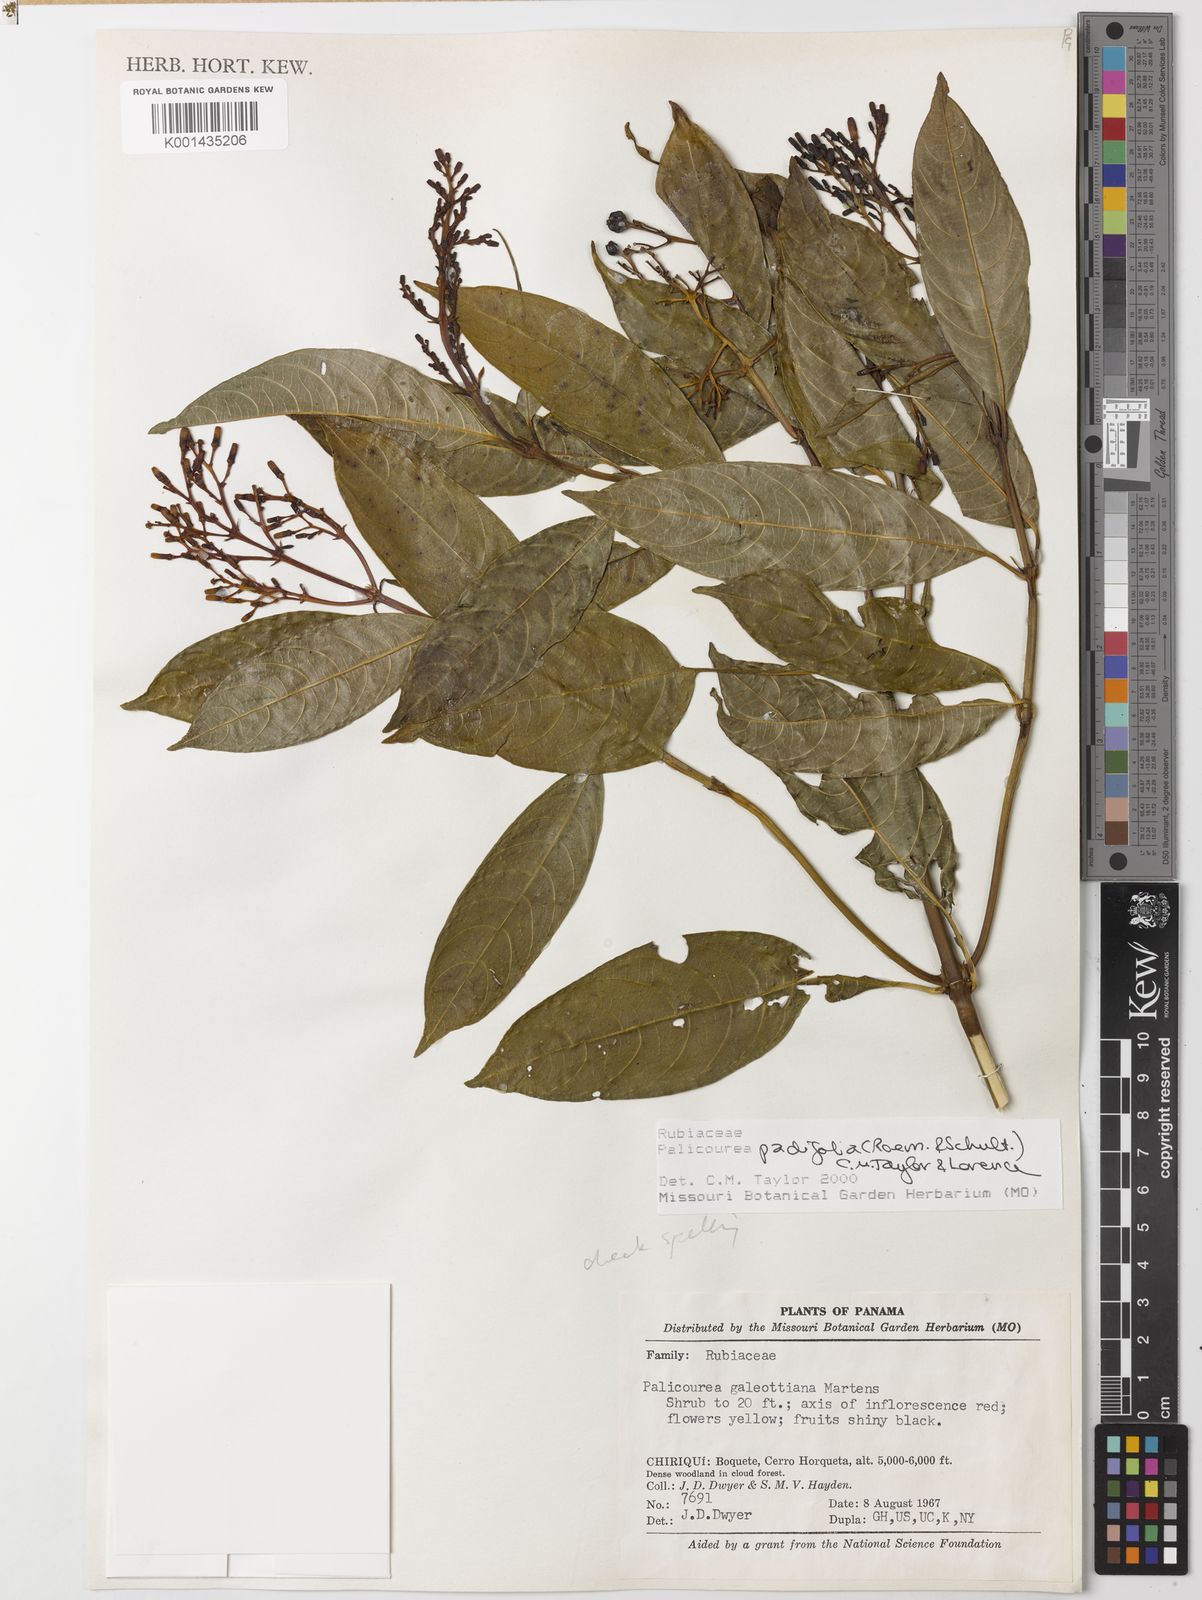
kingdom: Plantae
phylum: Tracheophyta
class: Magnoliopsida
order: Gentianales
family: Rubiaceae
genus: Palicourea
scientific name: Palicourea padifolia
